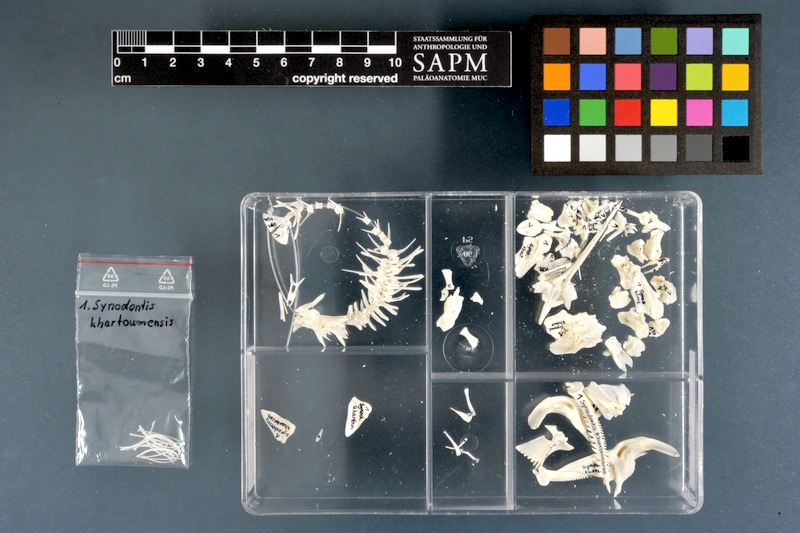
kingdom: Animalia
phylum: Chordata
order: Siluriformes
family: Mochokidae
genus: Synodontis
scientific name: Synodontis khartoumensis
